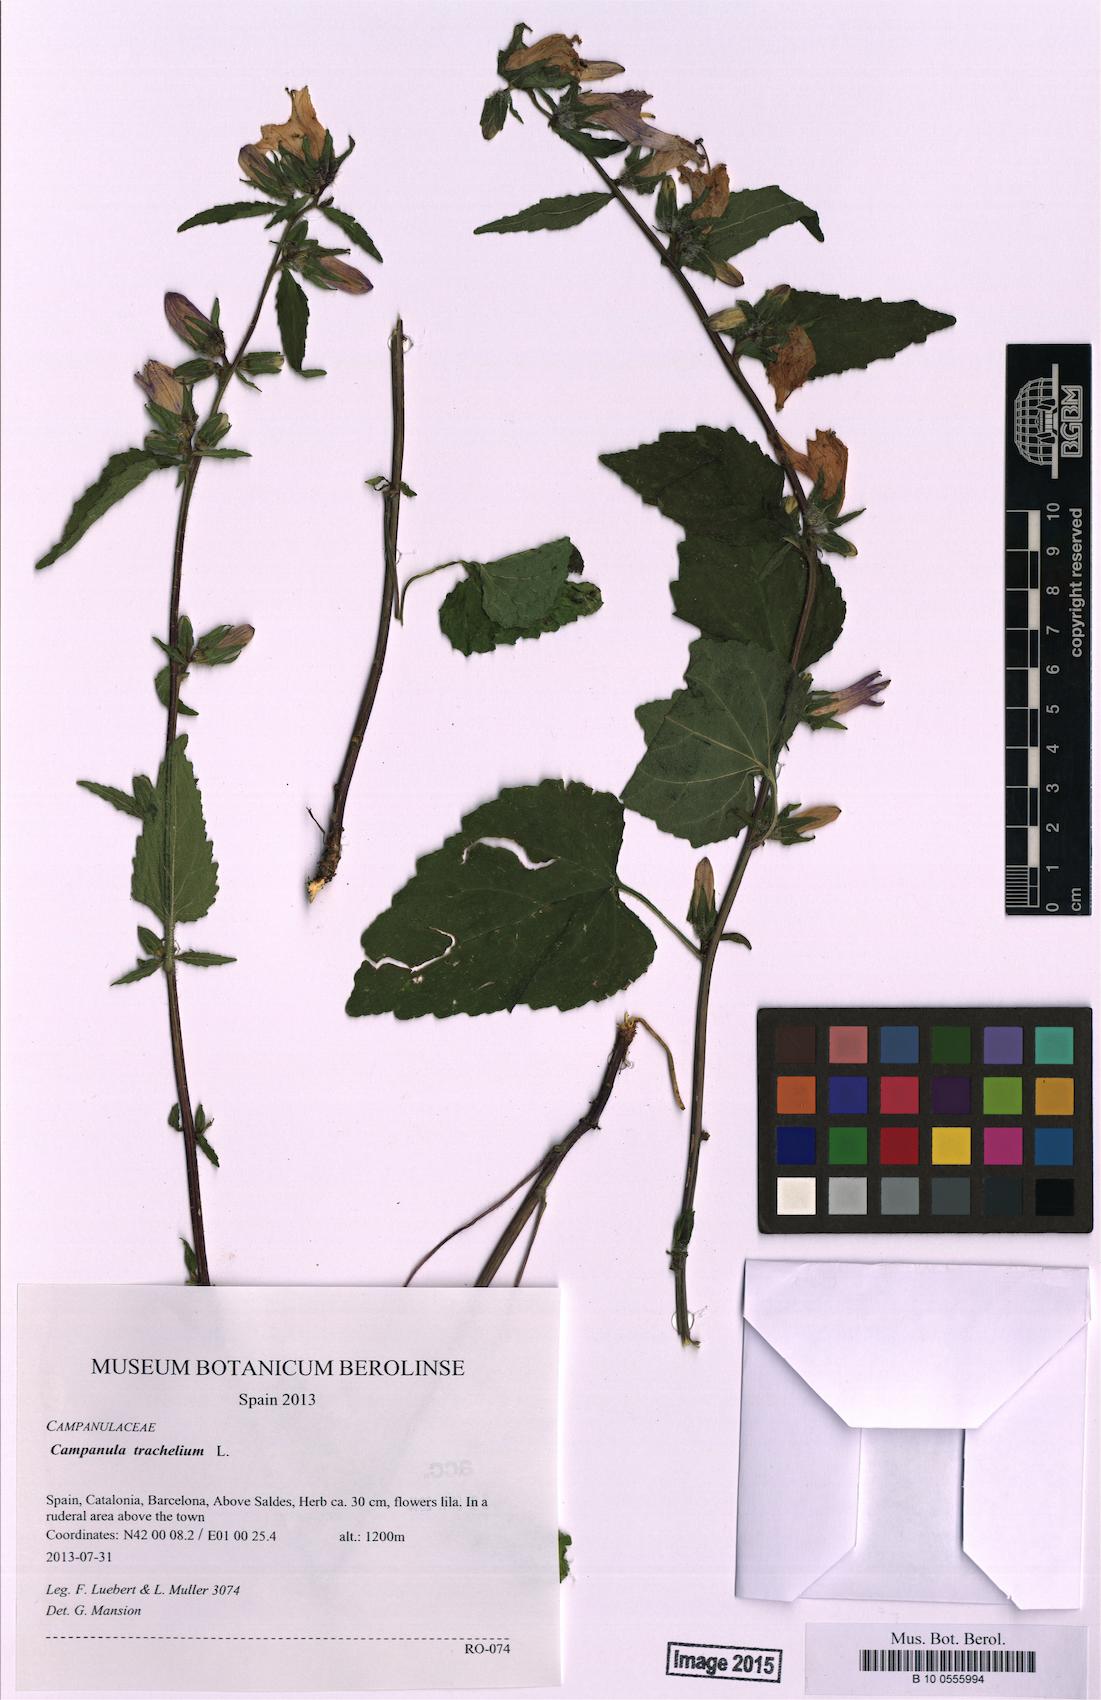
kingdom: Plantae
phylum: Tracheophyta
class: Magnoliopsida
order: Asterales
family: Campanulaceae
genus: Campanula
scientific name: Campanula trachelium
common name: Nettle-leaved bellflower
